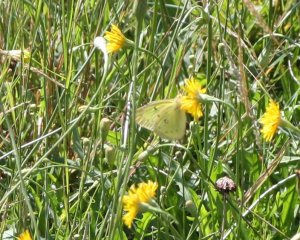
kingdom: Animalia
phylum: Arthropoda
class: Insecta
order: Lepidoptera
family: Pieridae
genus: Colias
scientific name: Colias philodice
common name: Clouded Sulphur
